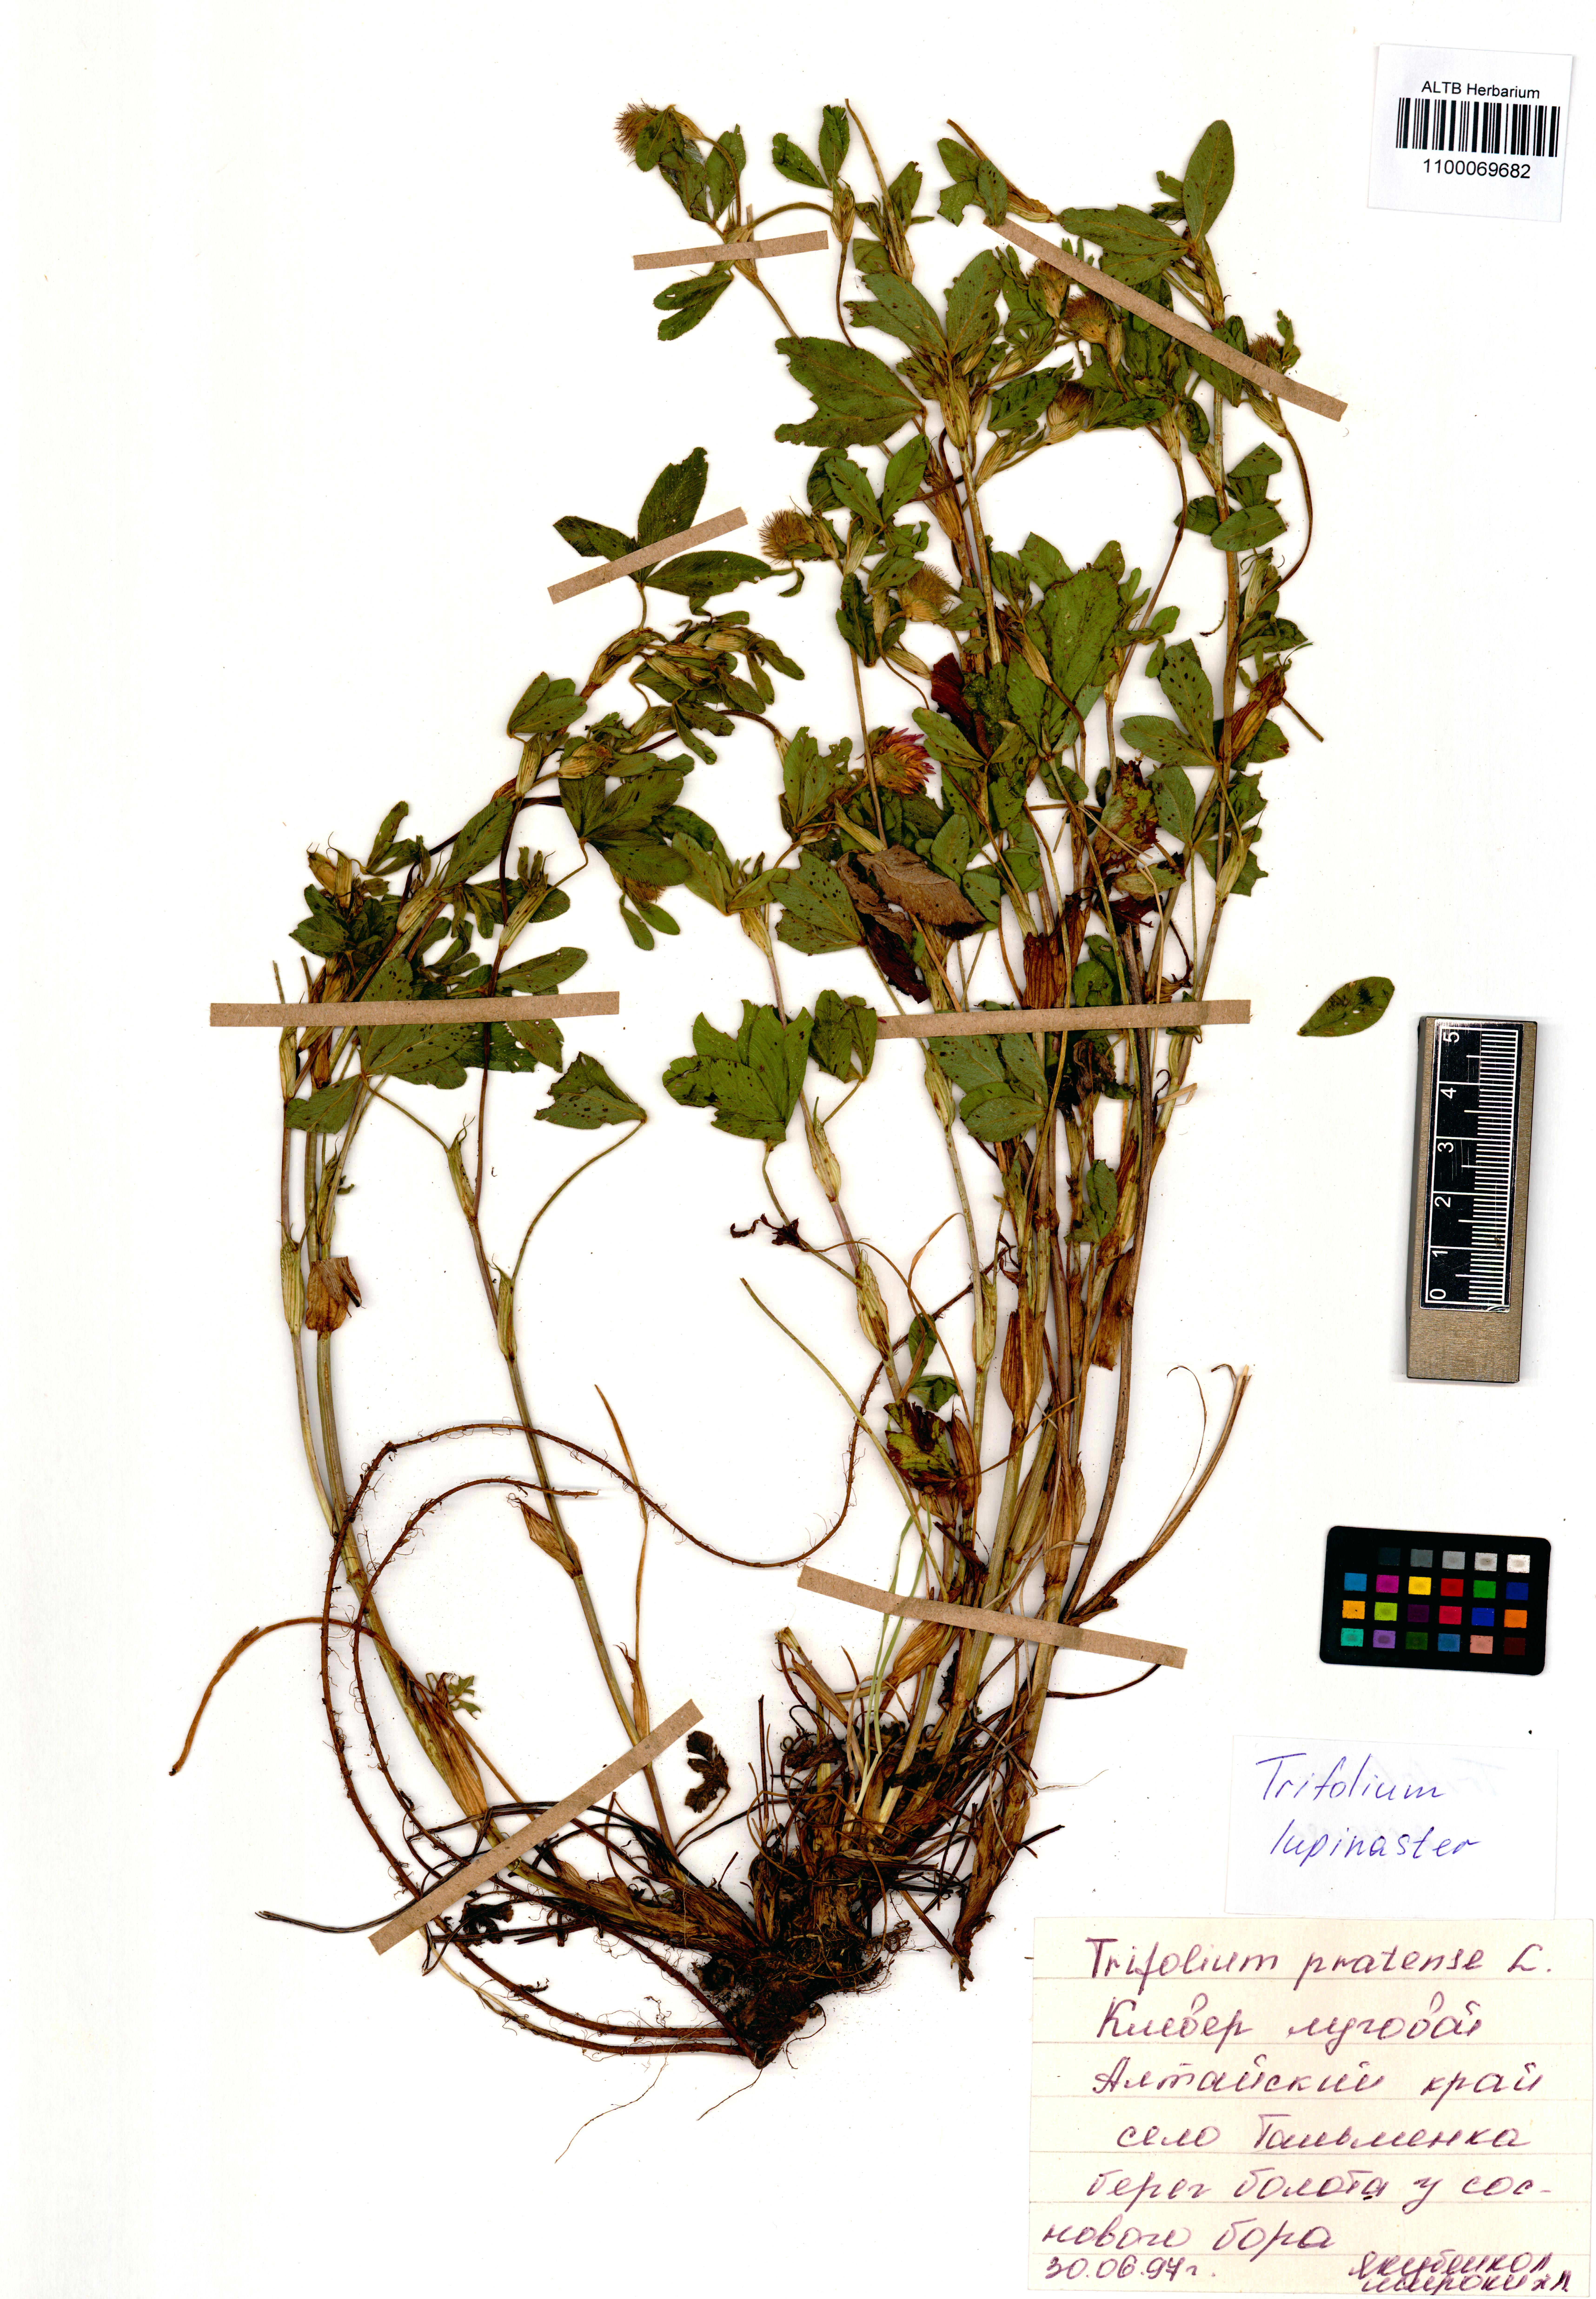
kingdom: Plantae
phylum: Tracheophyta
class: Magnoliopsida
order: Fabales
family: Fabaceae
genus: Trifolium
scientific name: Trifolium lupinaster
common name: Lupine clover
